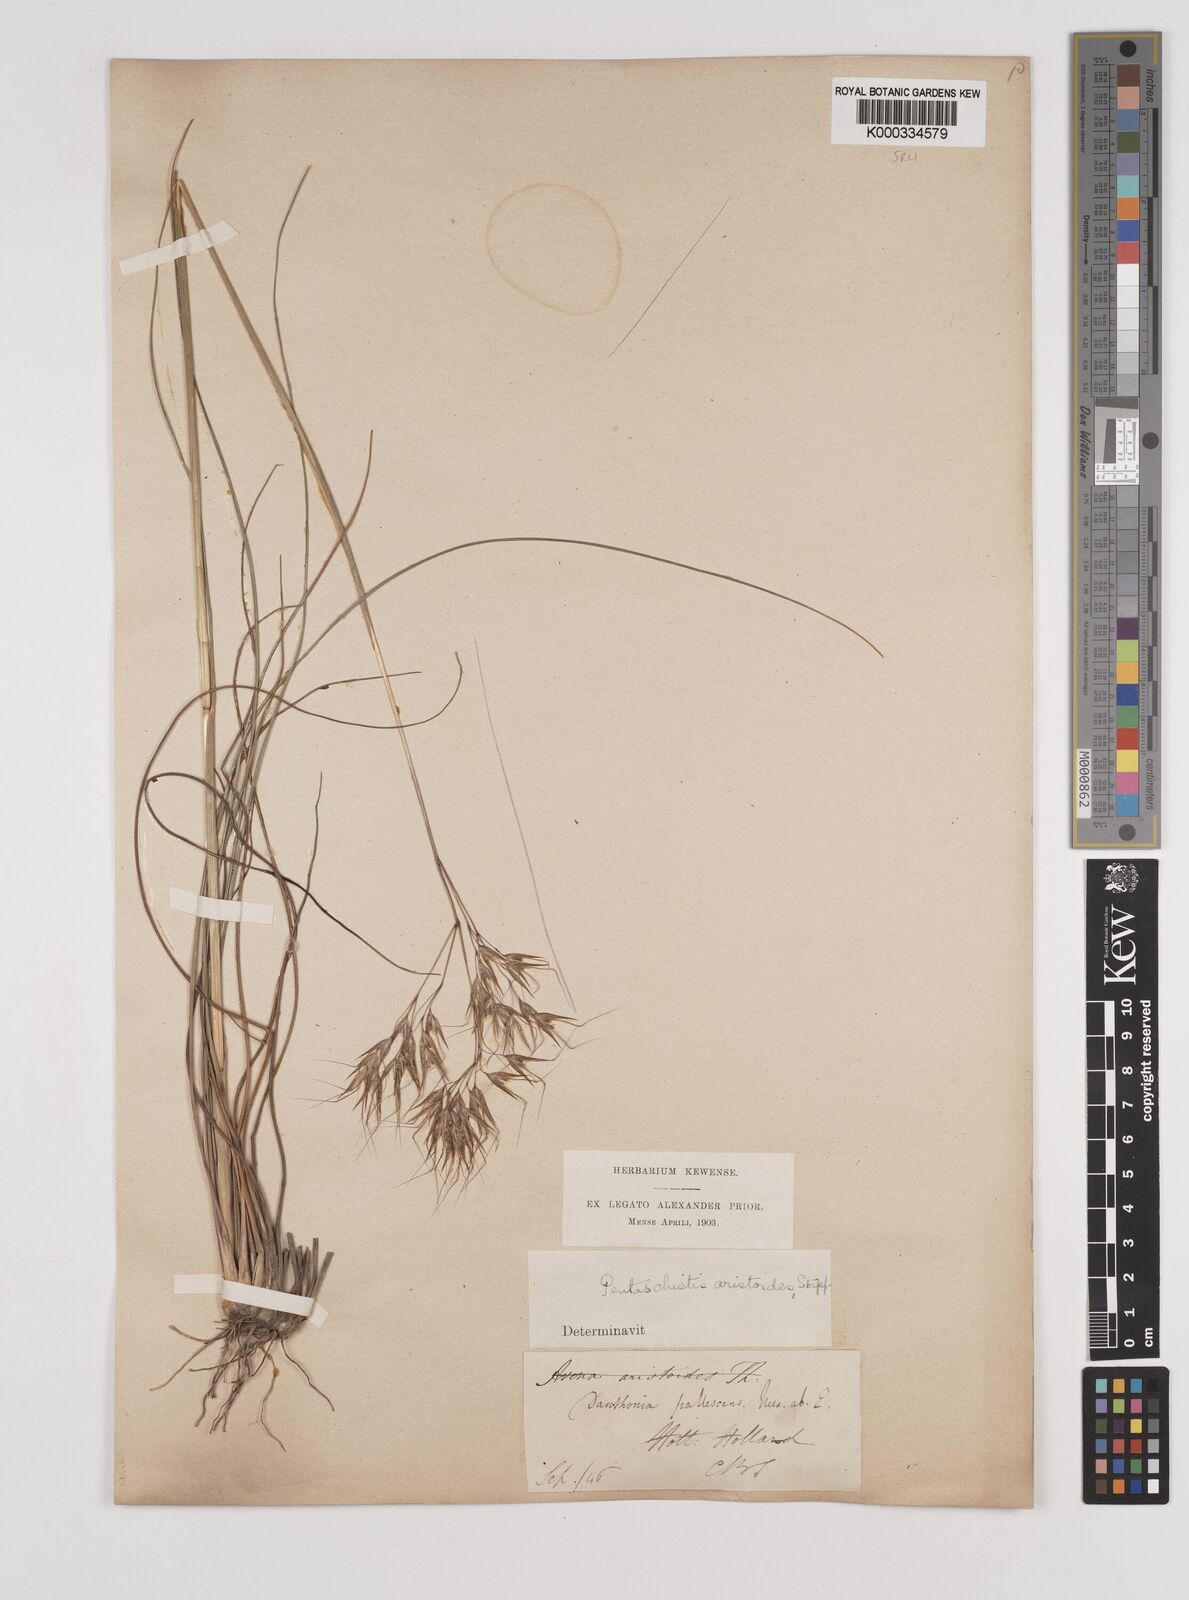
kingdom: Plantae
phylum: Tracheophyta
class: Liliopsida
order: Poales
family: Poaceae
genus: Pentameris
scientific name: Pentameris aristidoides
